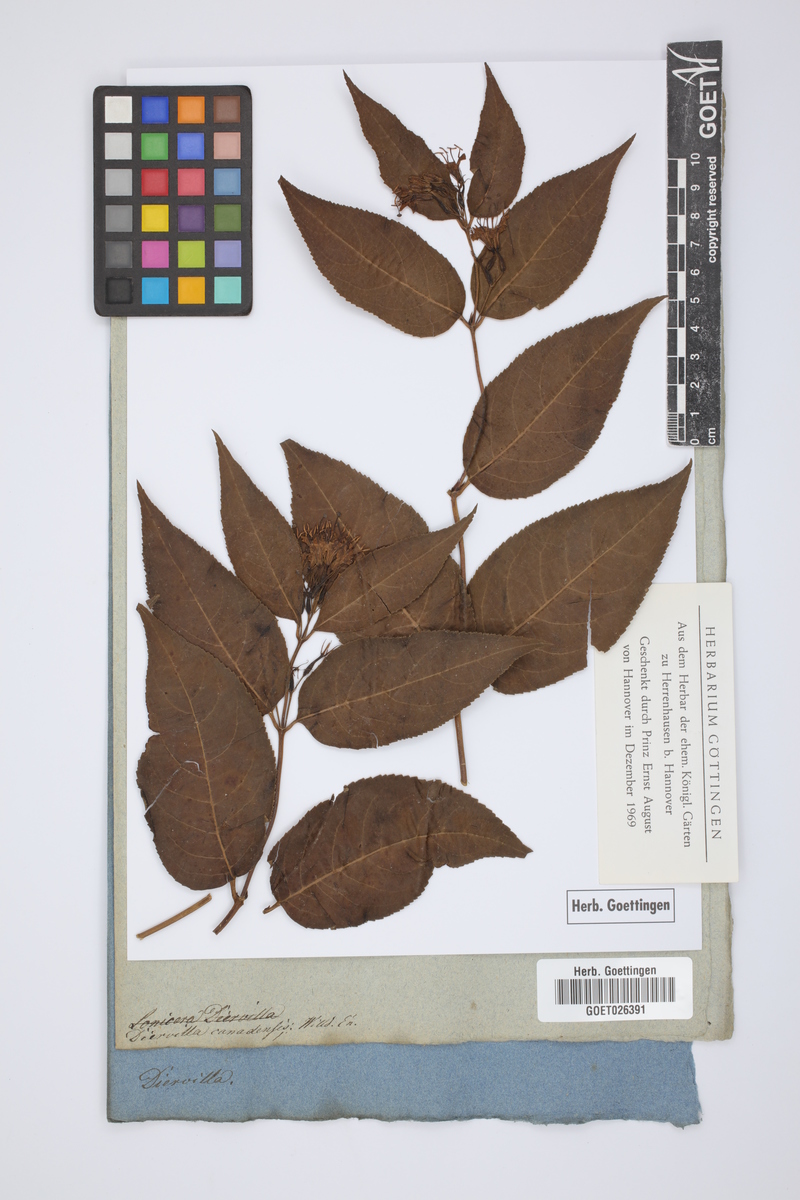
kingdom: Plantae
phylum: Tracheophyta
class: Magnoliopsida
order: Dipsacales
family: Caprifoliaceae
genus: Diervilla
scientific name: Diervilla lonicera
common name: Bush-honeysuckle
